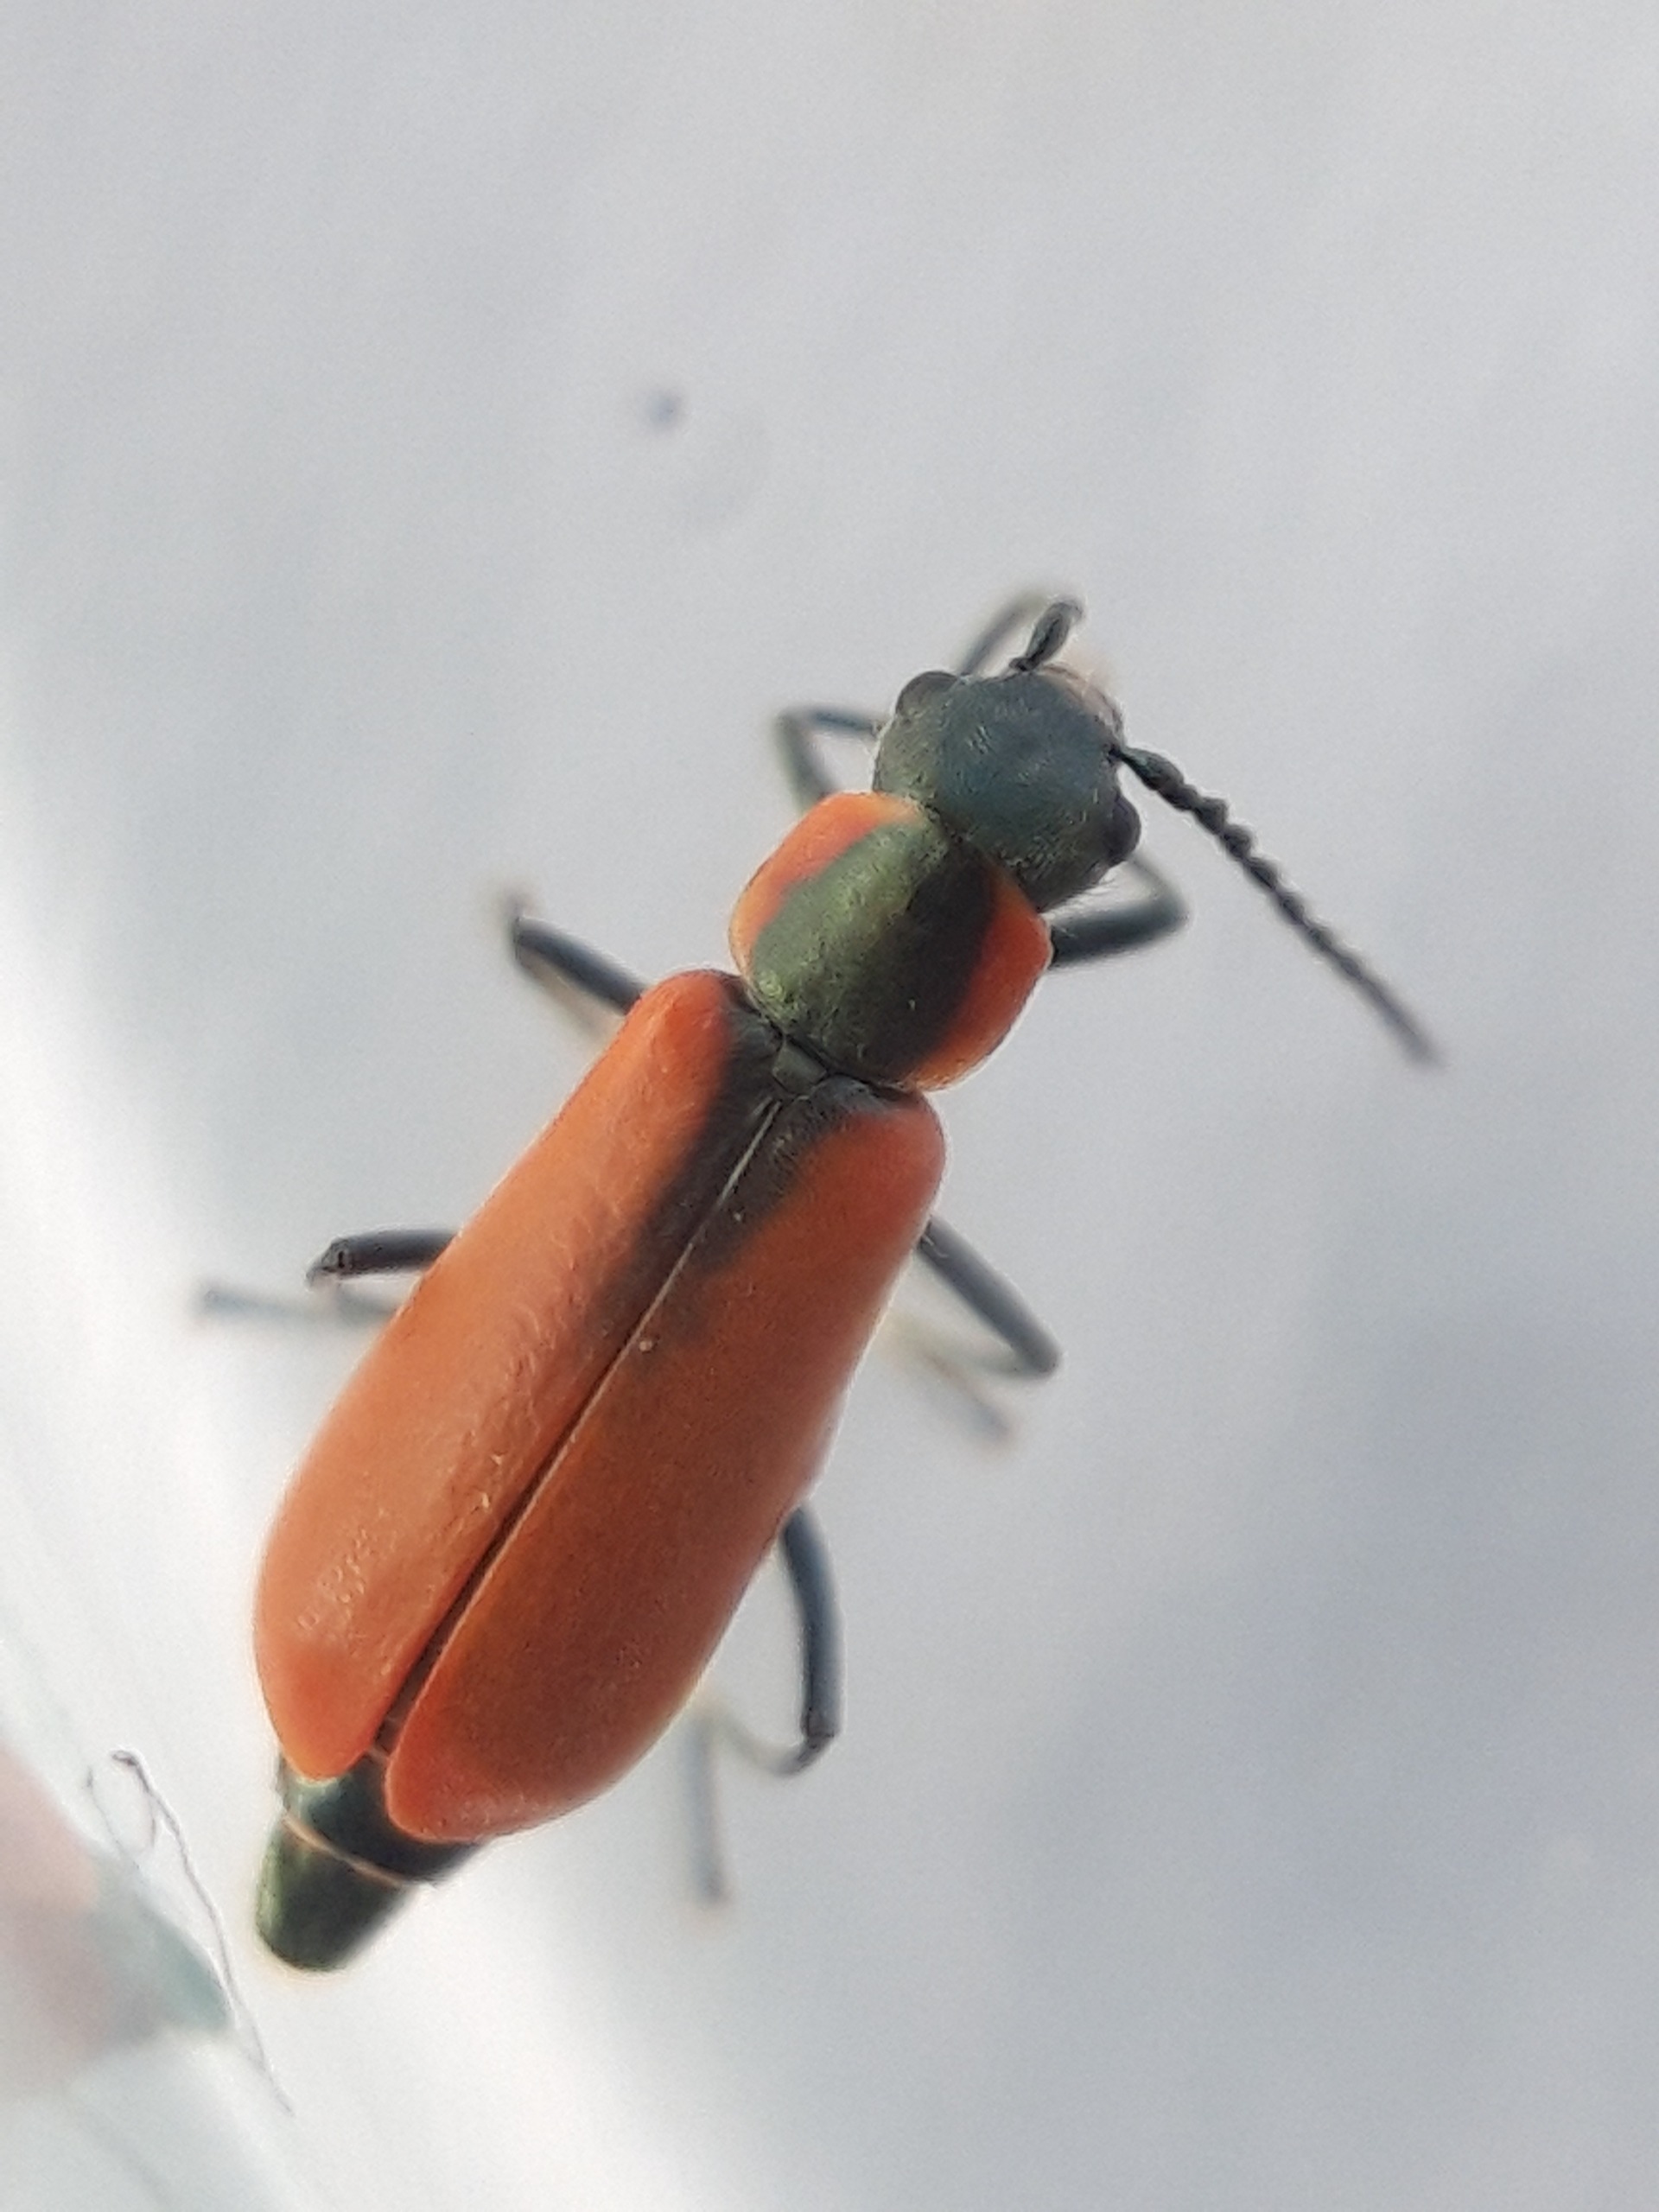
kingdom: Animalia
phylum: Arthropoda
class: Insecta
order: Coleoptera
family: Melyridae
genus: Anthocomus
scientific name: Anthocomus rufus
